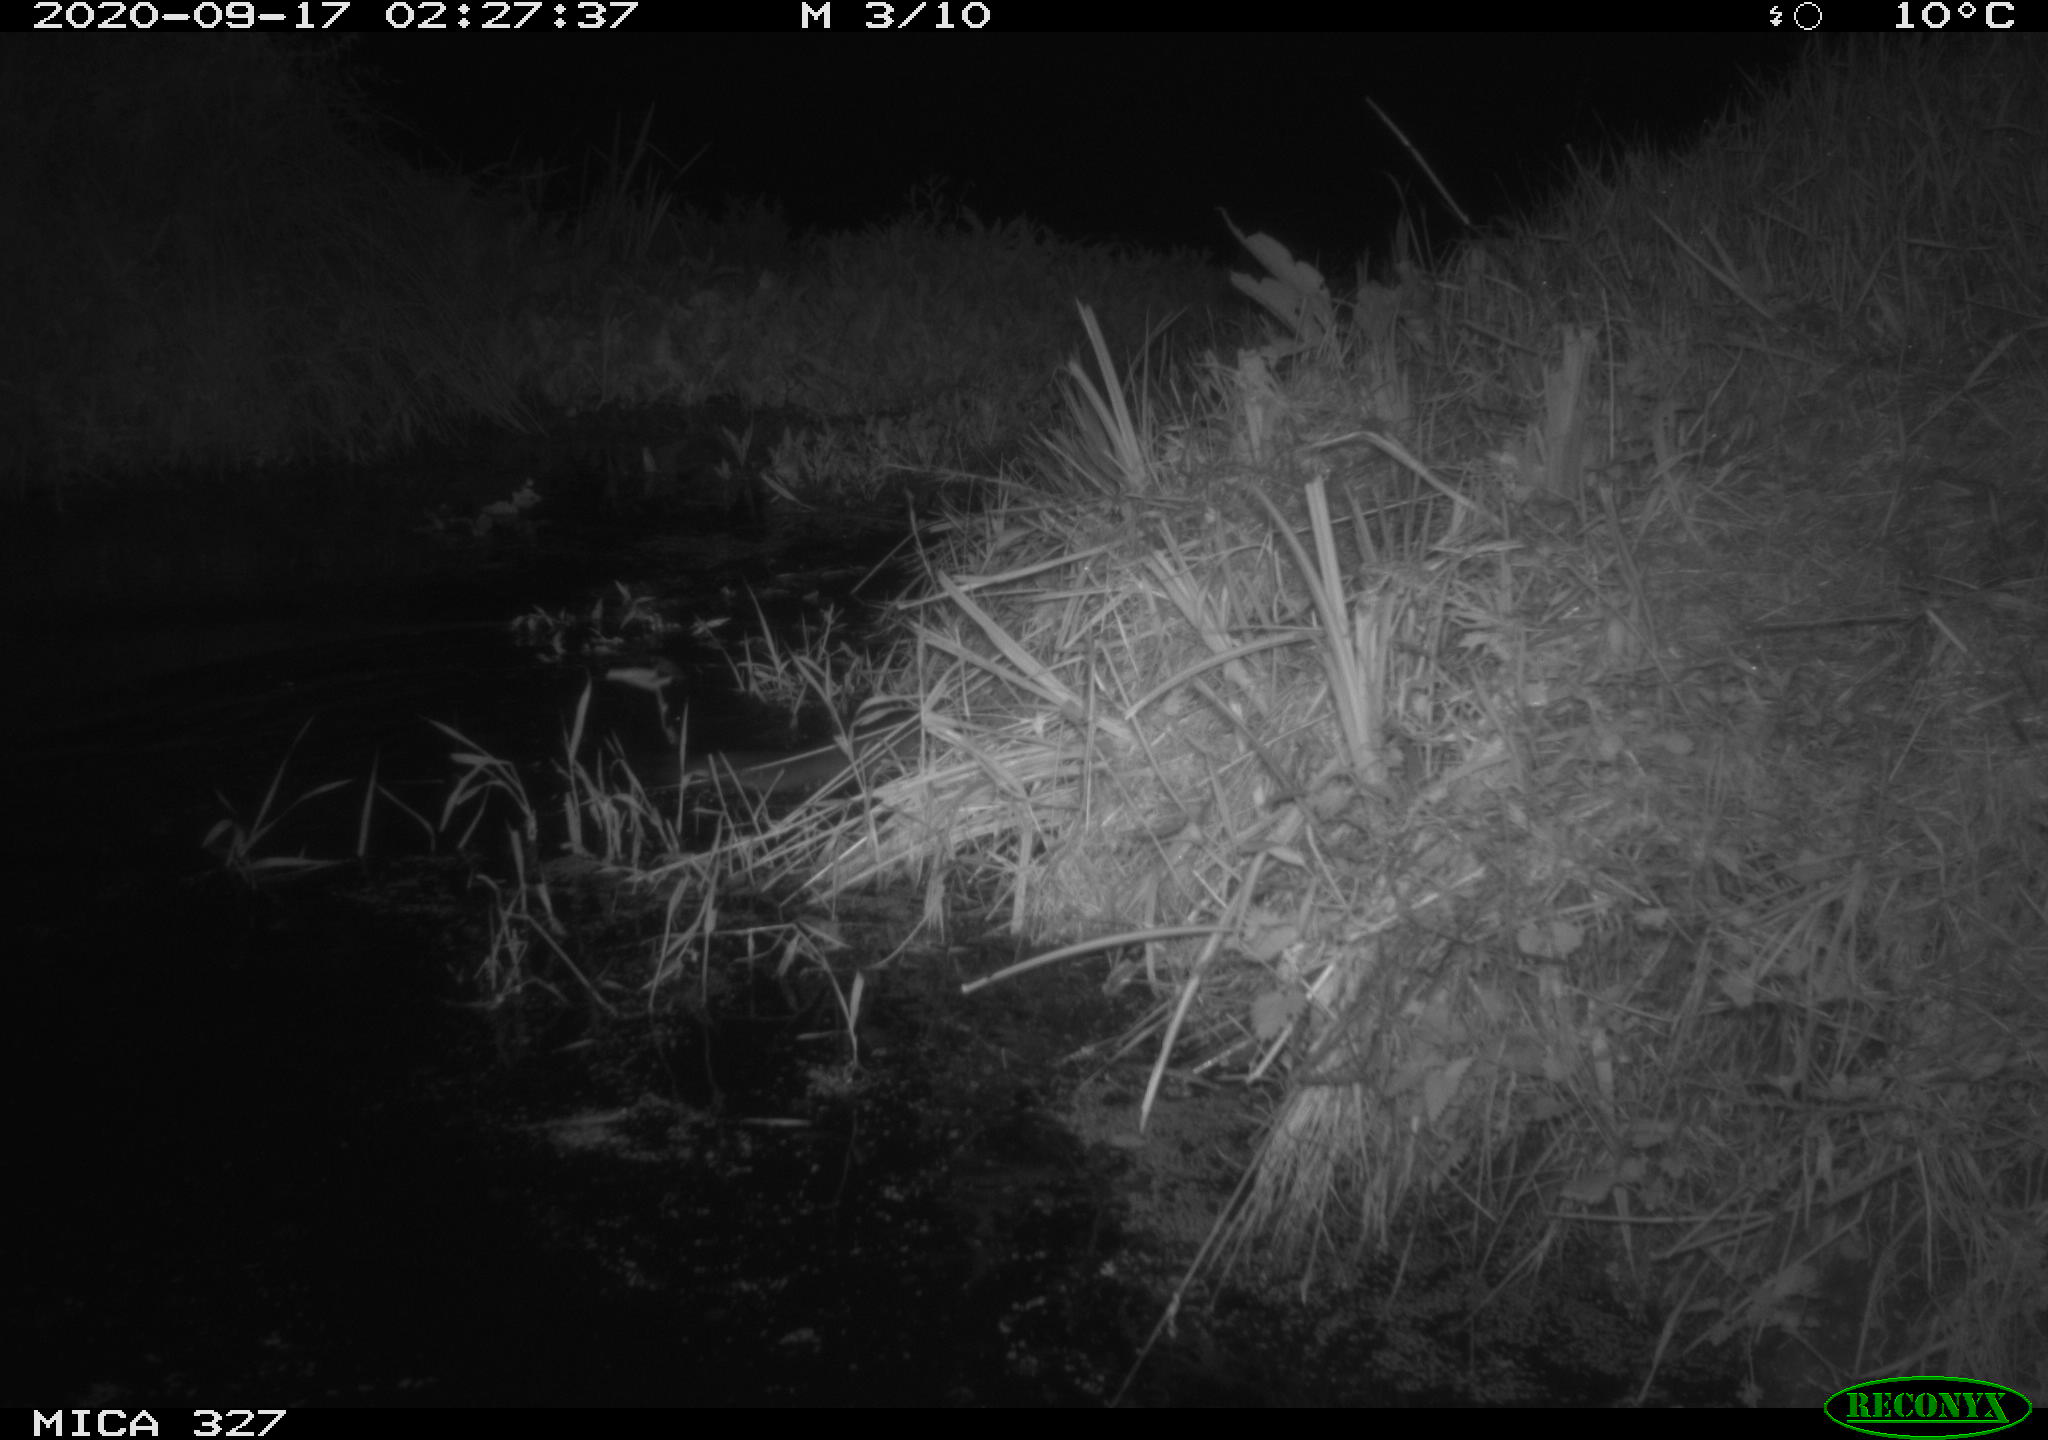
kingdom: Animalia
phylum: Chordata
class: Mammalia
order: Carnivora
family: Mustelidae
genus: Lutra
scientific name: Lutra lutra
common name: European otter
